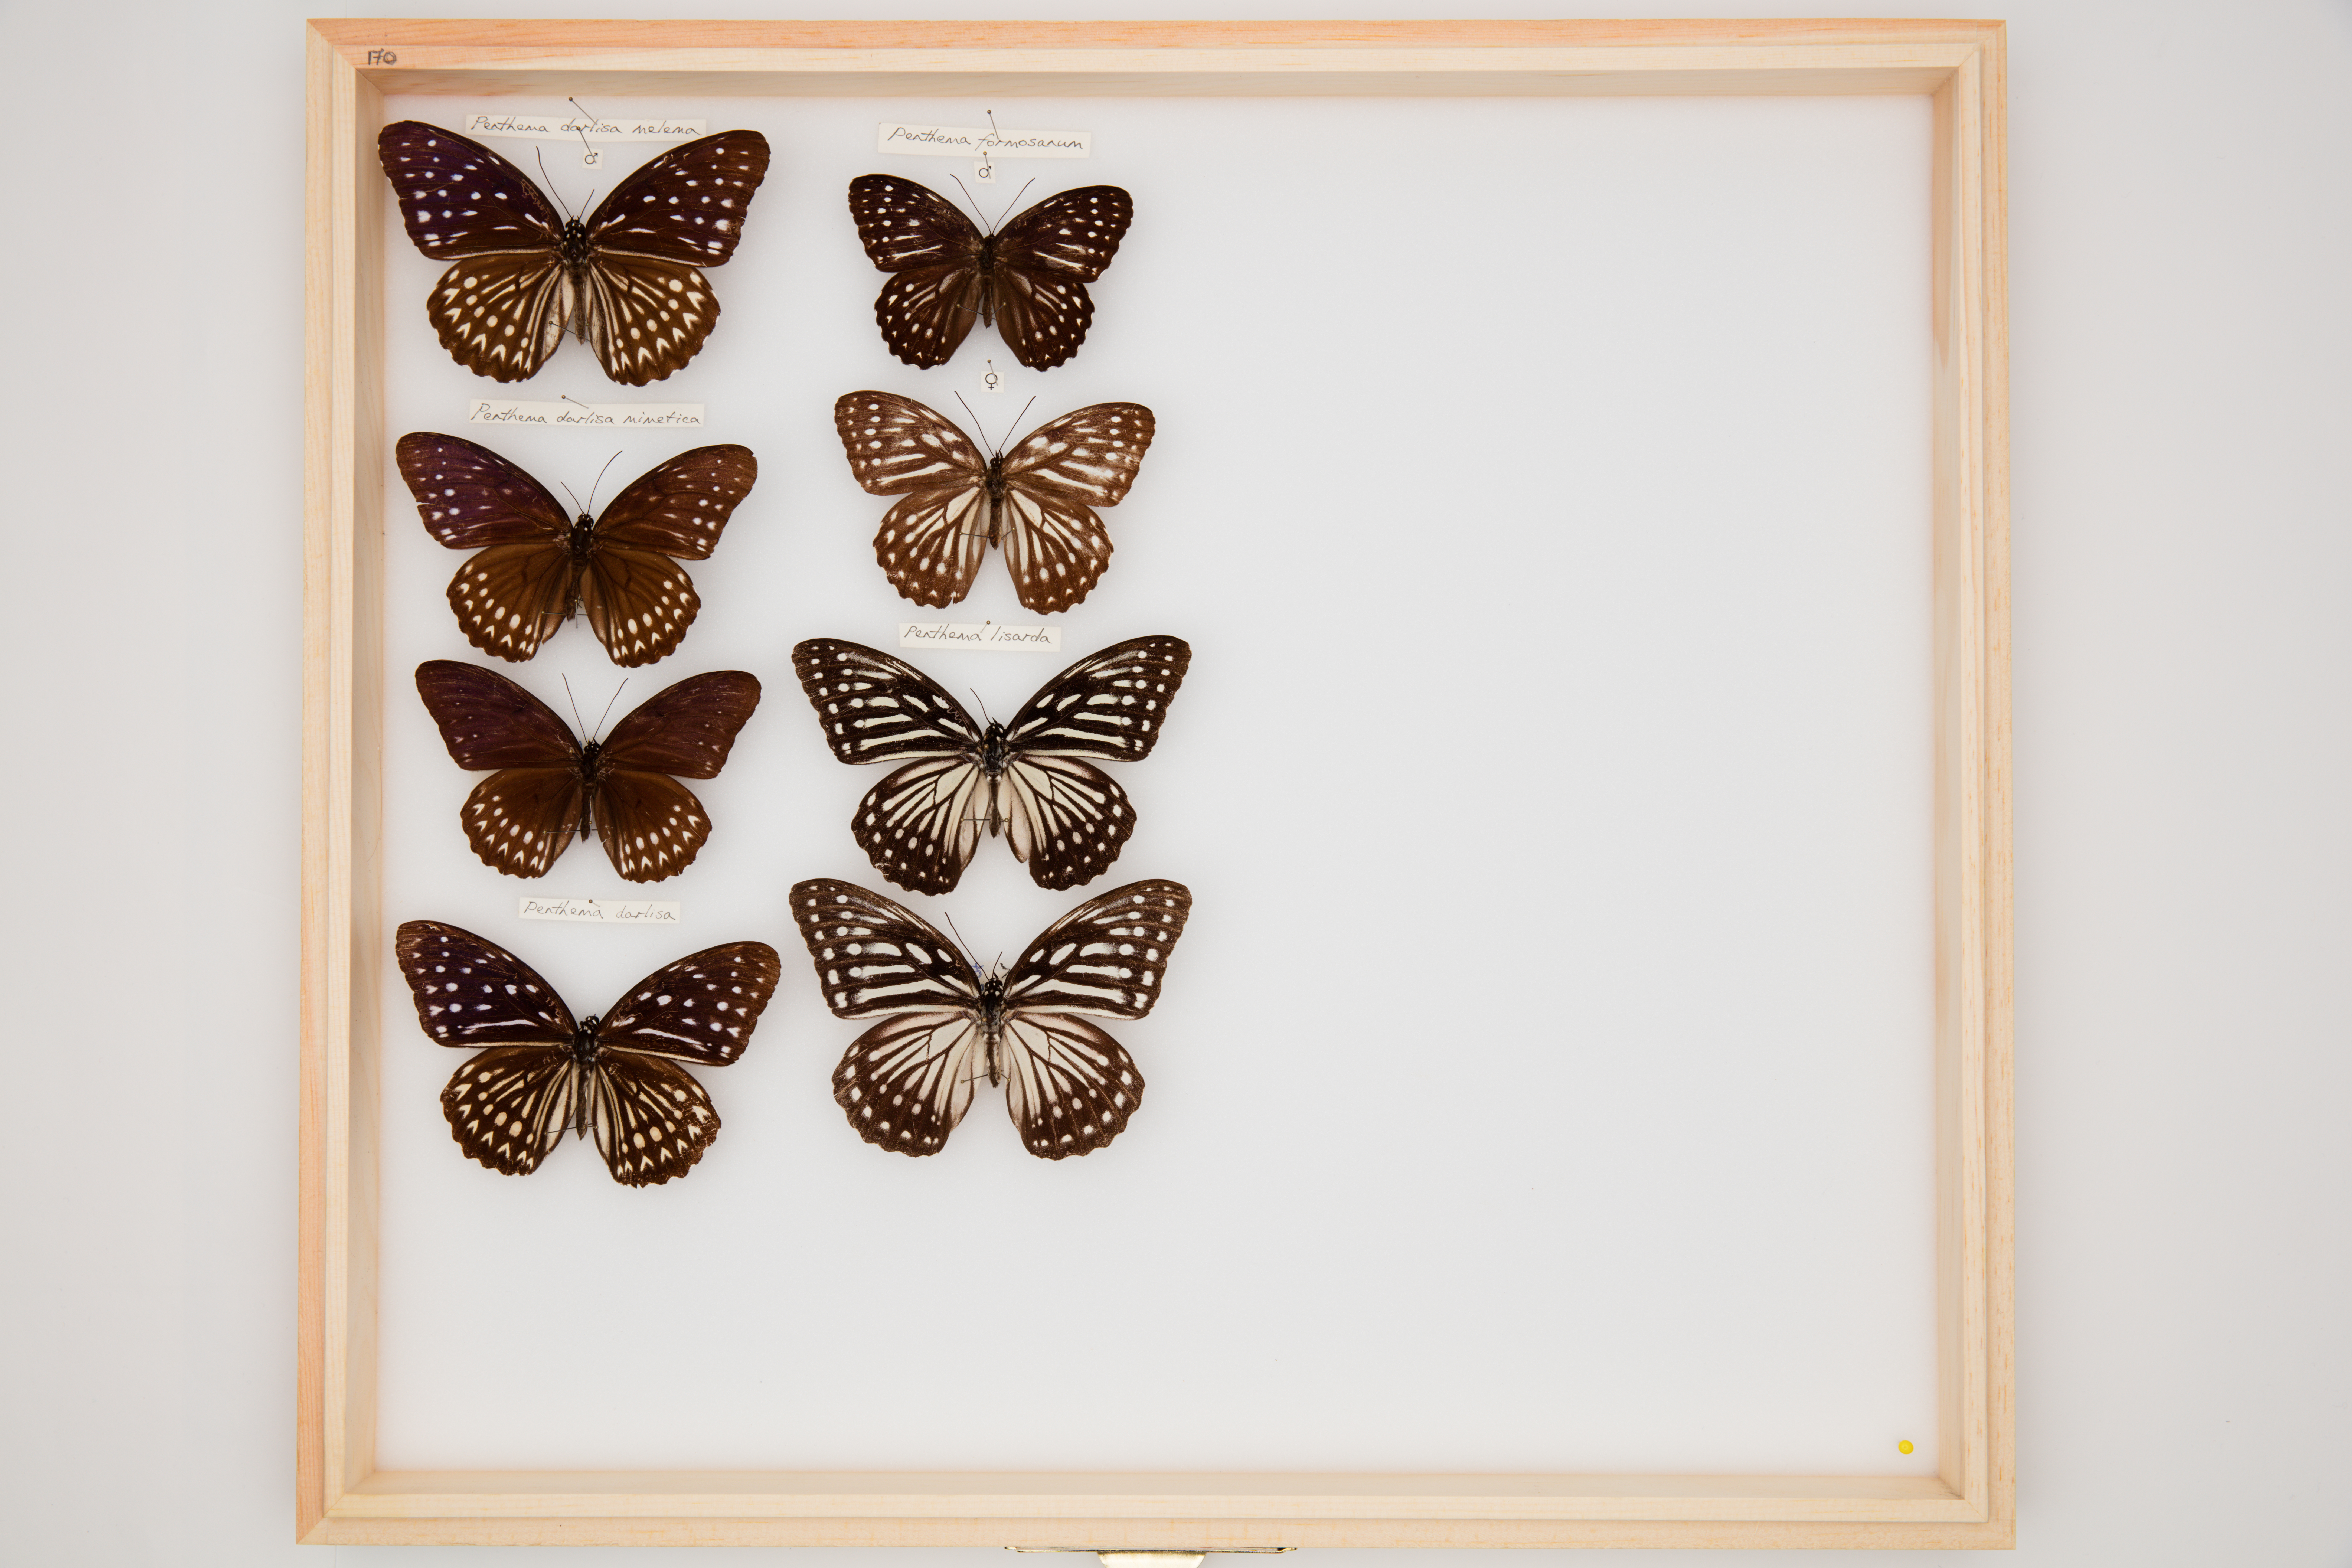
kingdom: Animalia
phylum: Arthropoda
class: Insecta
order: Lepidoptera
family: Nymphalidae
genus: Penthema
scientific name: Penthema darlisa
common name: Three-coloured kaiser
